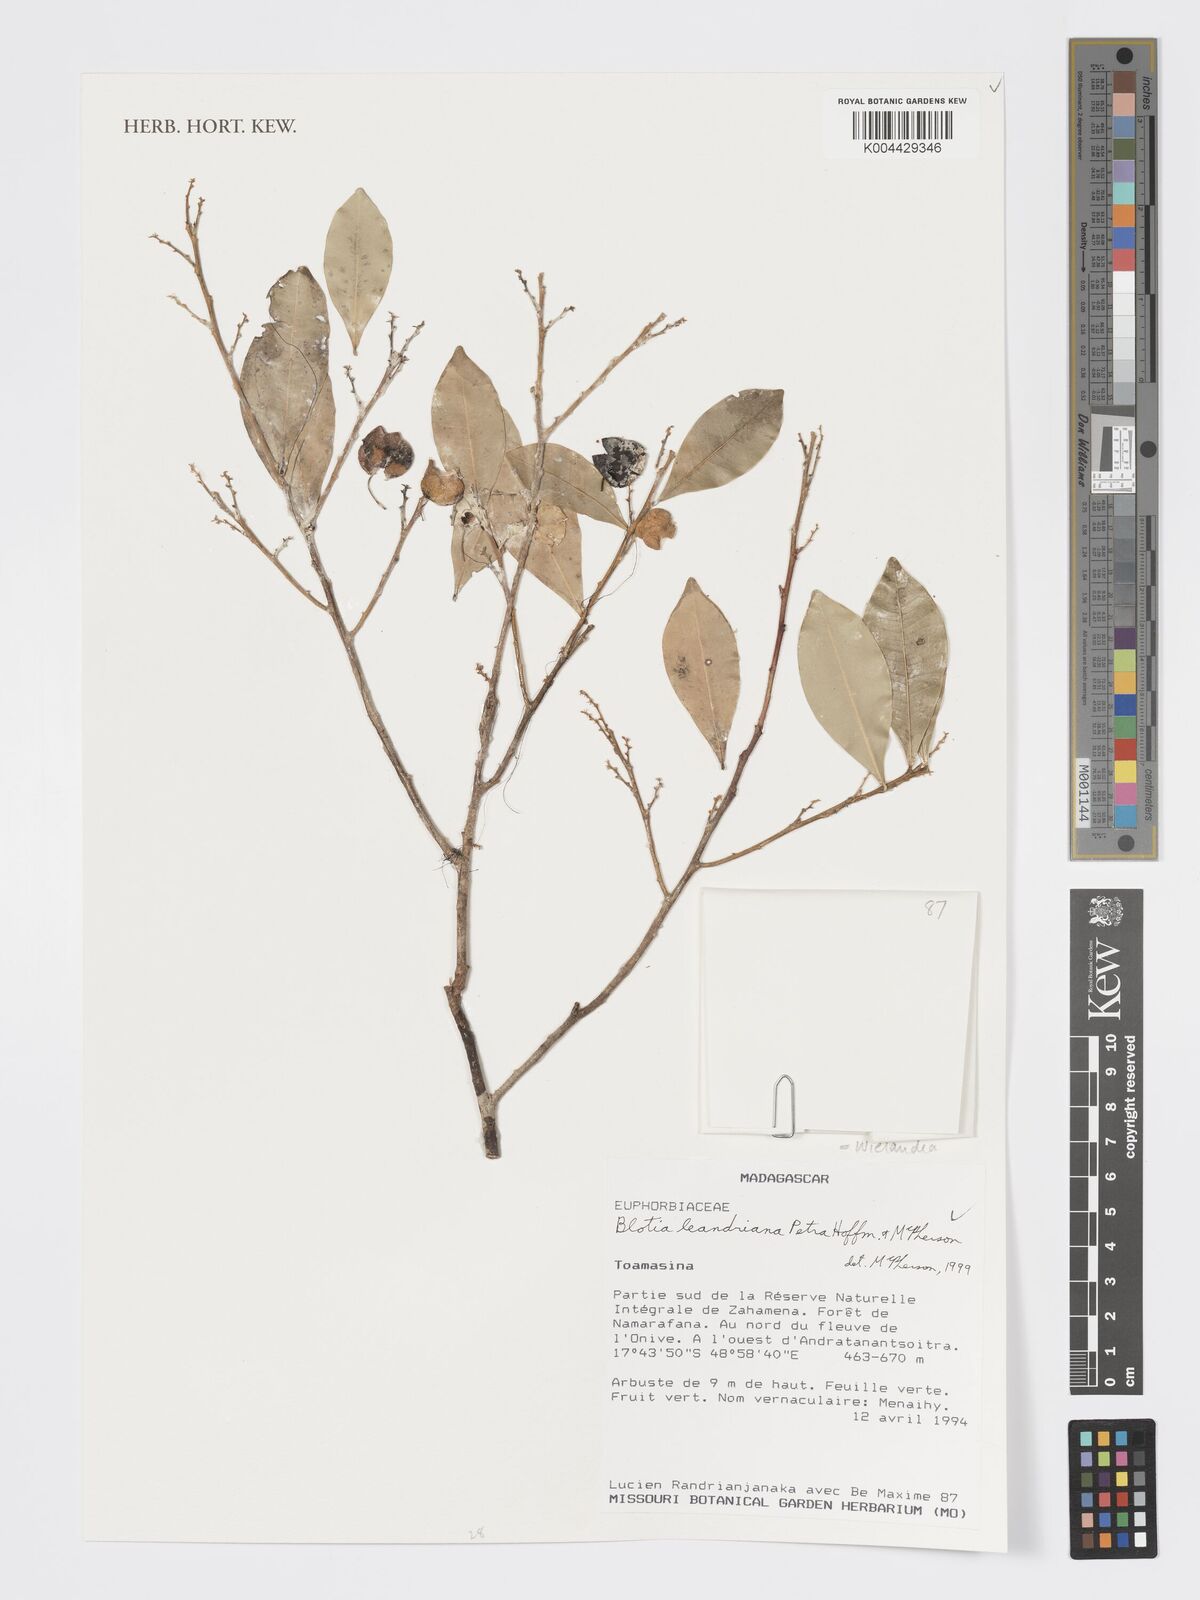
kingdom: Plantae
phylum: Tracheophyta
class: Magnoliopsida
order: Malpighiales
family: Phyllanthaceae
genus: Wielandia
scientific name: Wielandia leandriana
